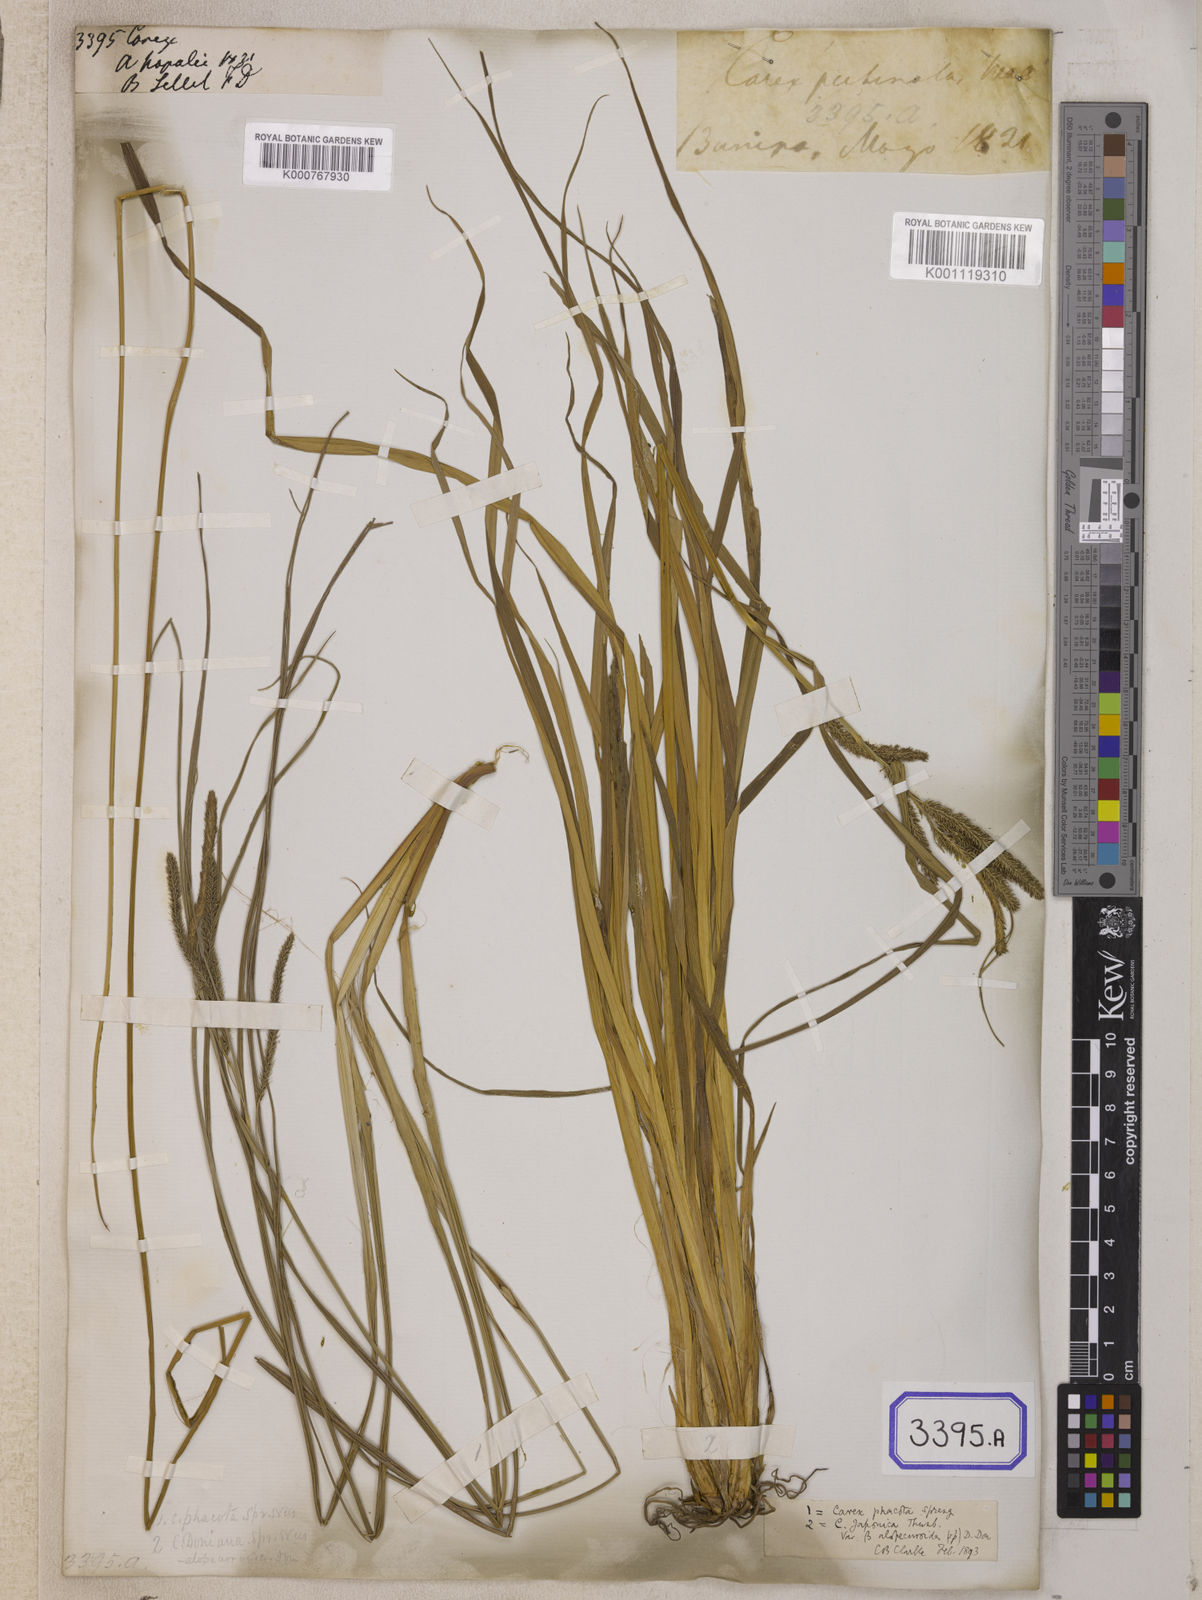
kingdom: Plantae
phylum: Tracheophyta
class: Liliopsida
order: Poales
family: Cyperaceae
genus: Carex
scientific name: Carex
